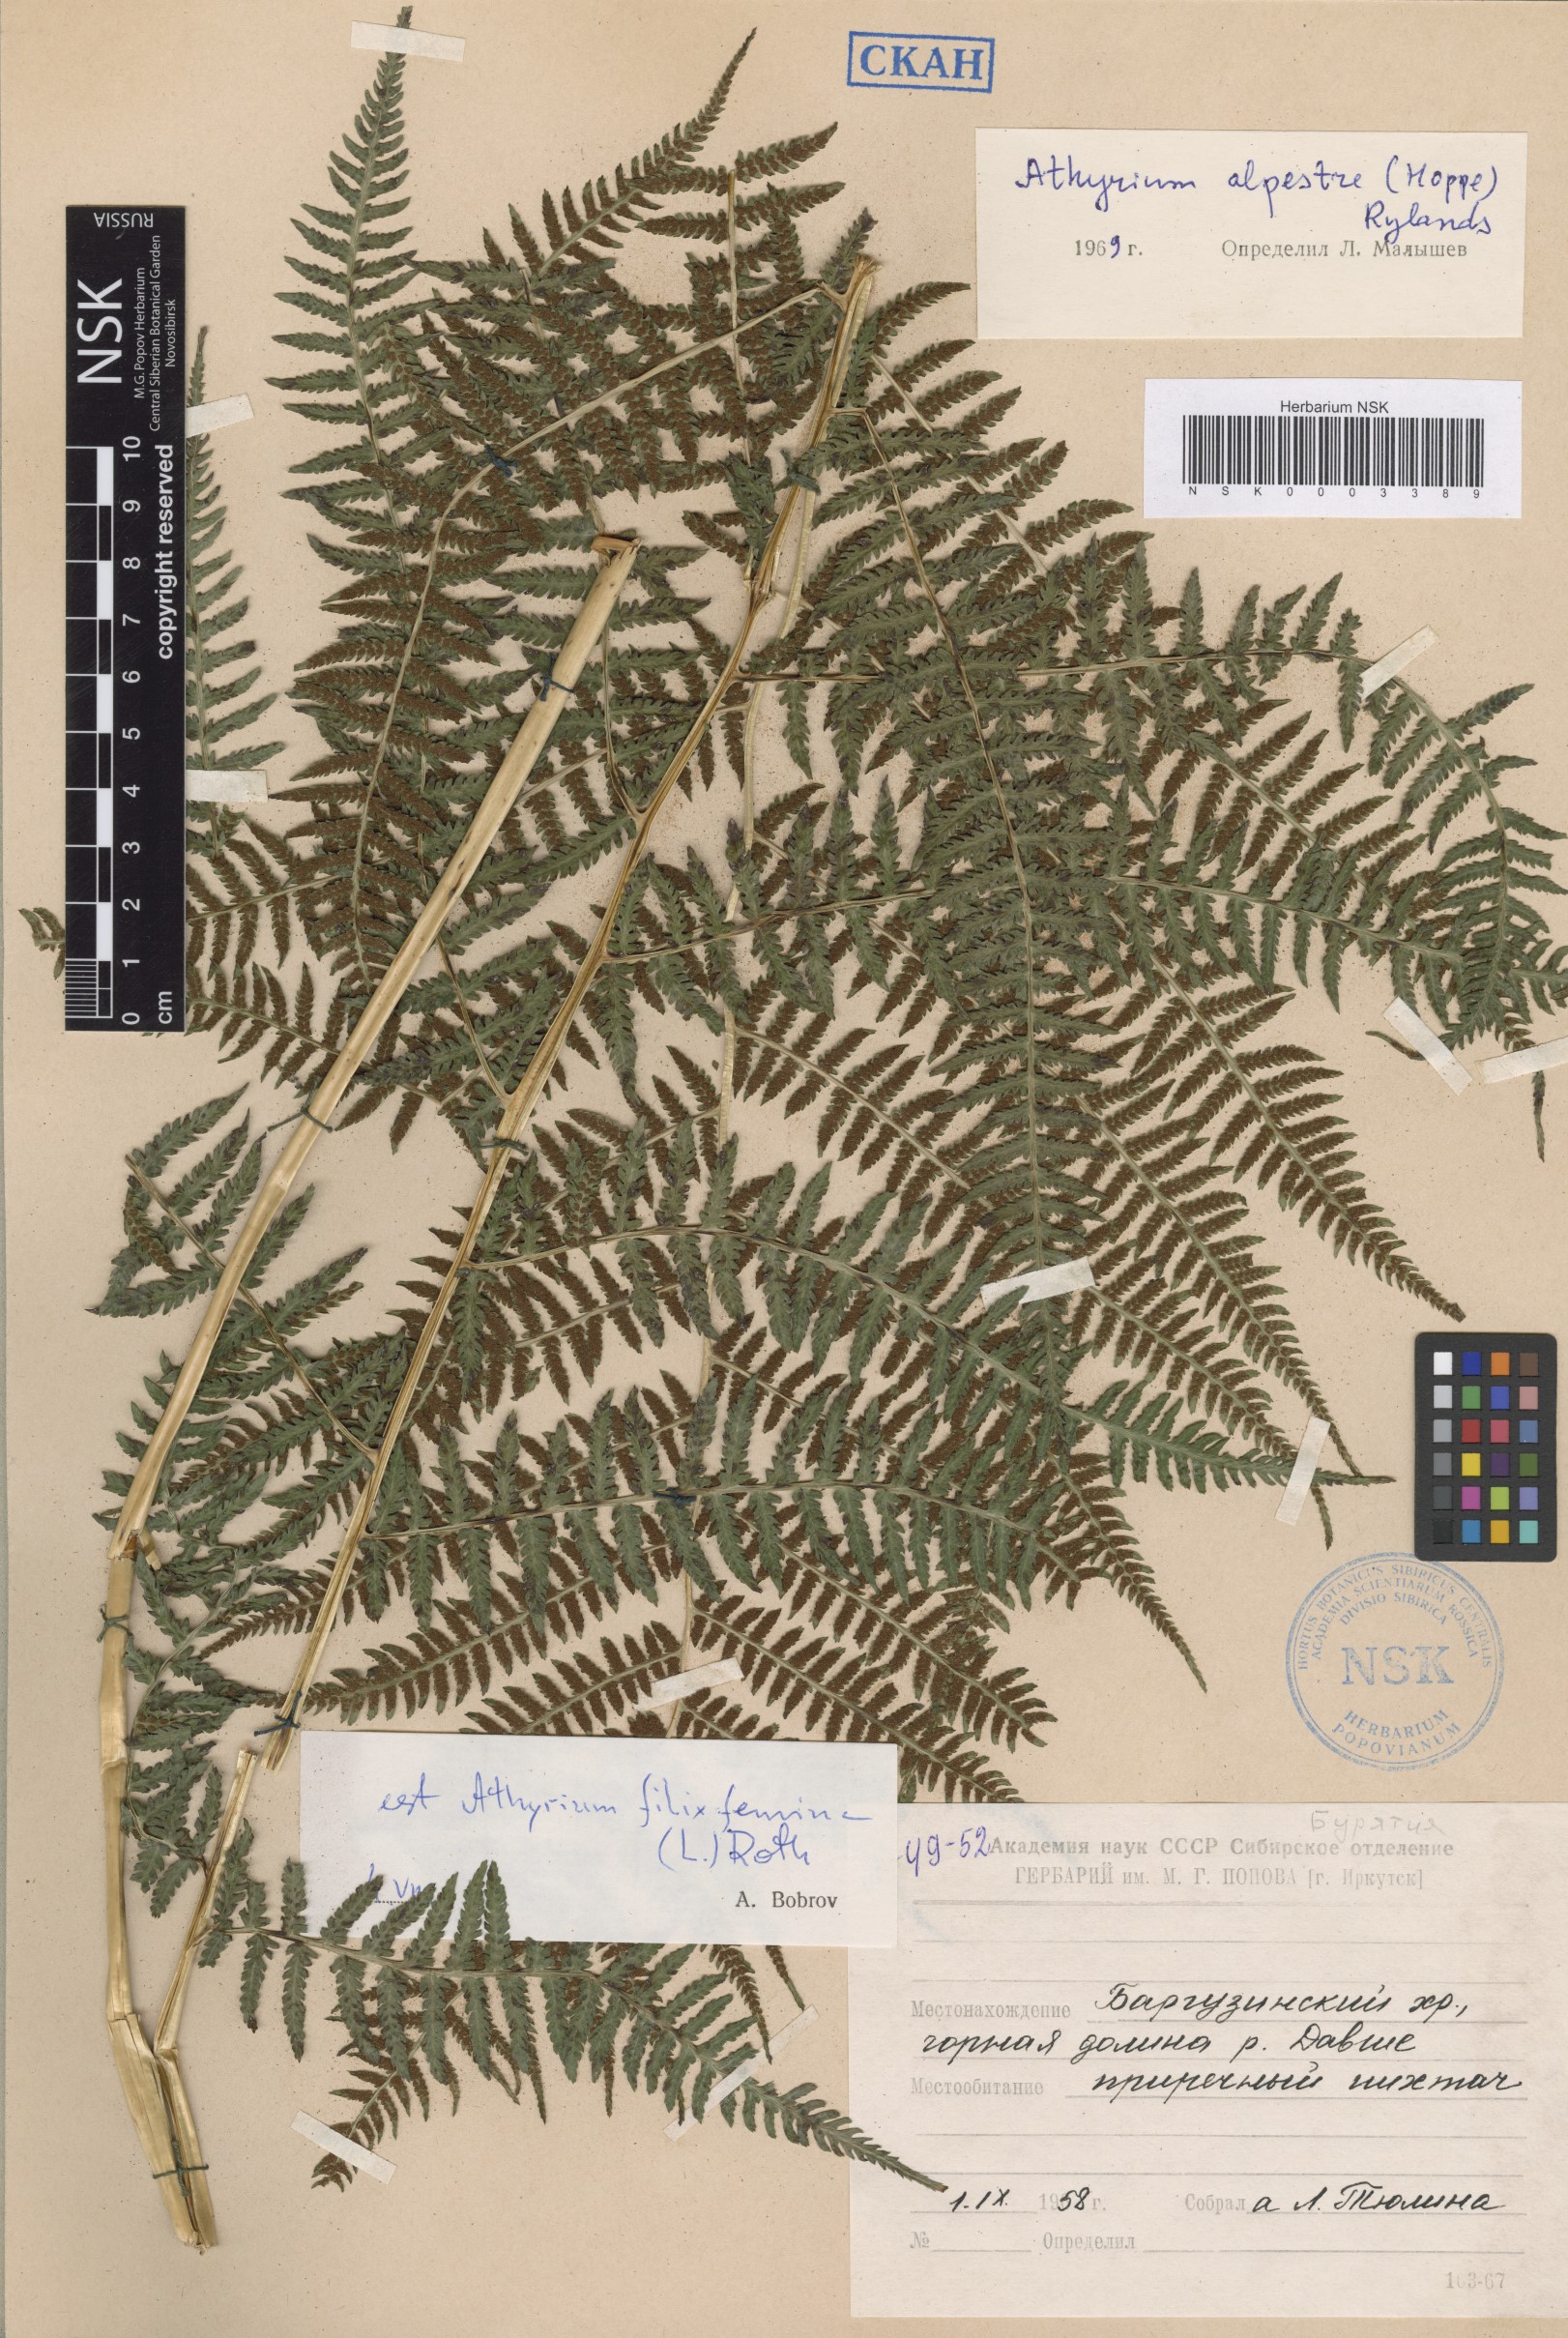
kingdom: Plantae
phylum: Tracheophyta
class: Polypodiopsida
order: Polypodiales
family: Athyriaceae
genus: Athyrium
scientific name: Athyrium filix-femina
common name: Lady fern
